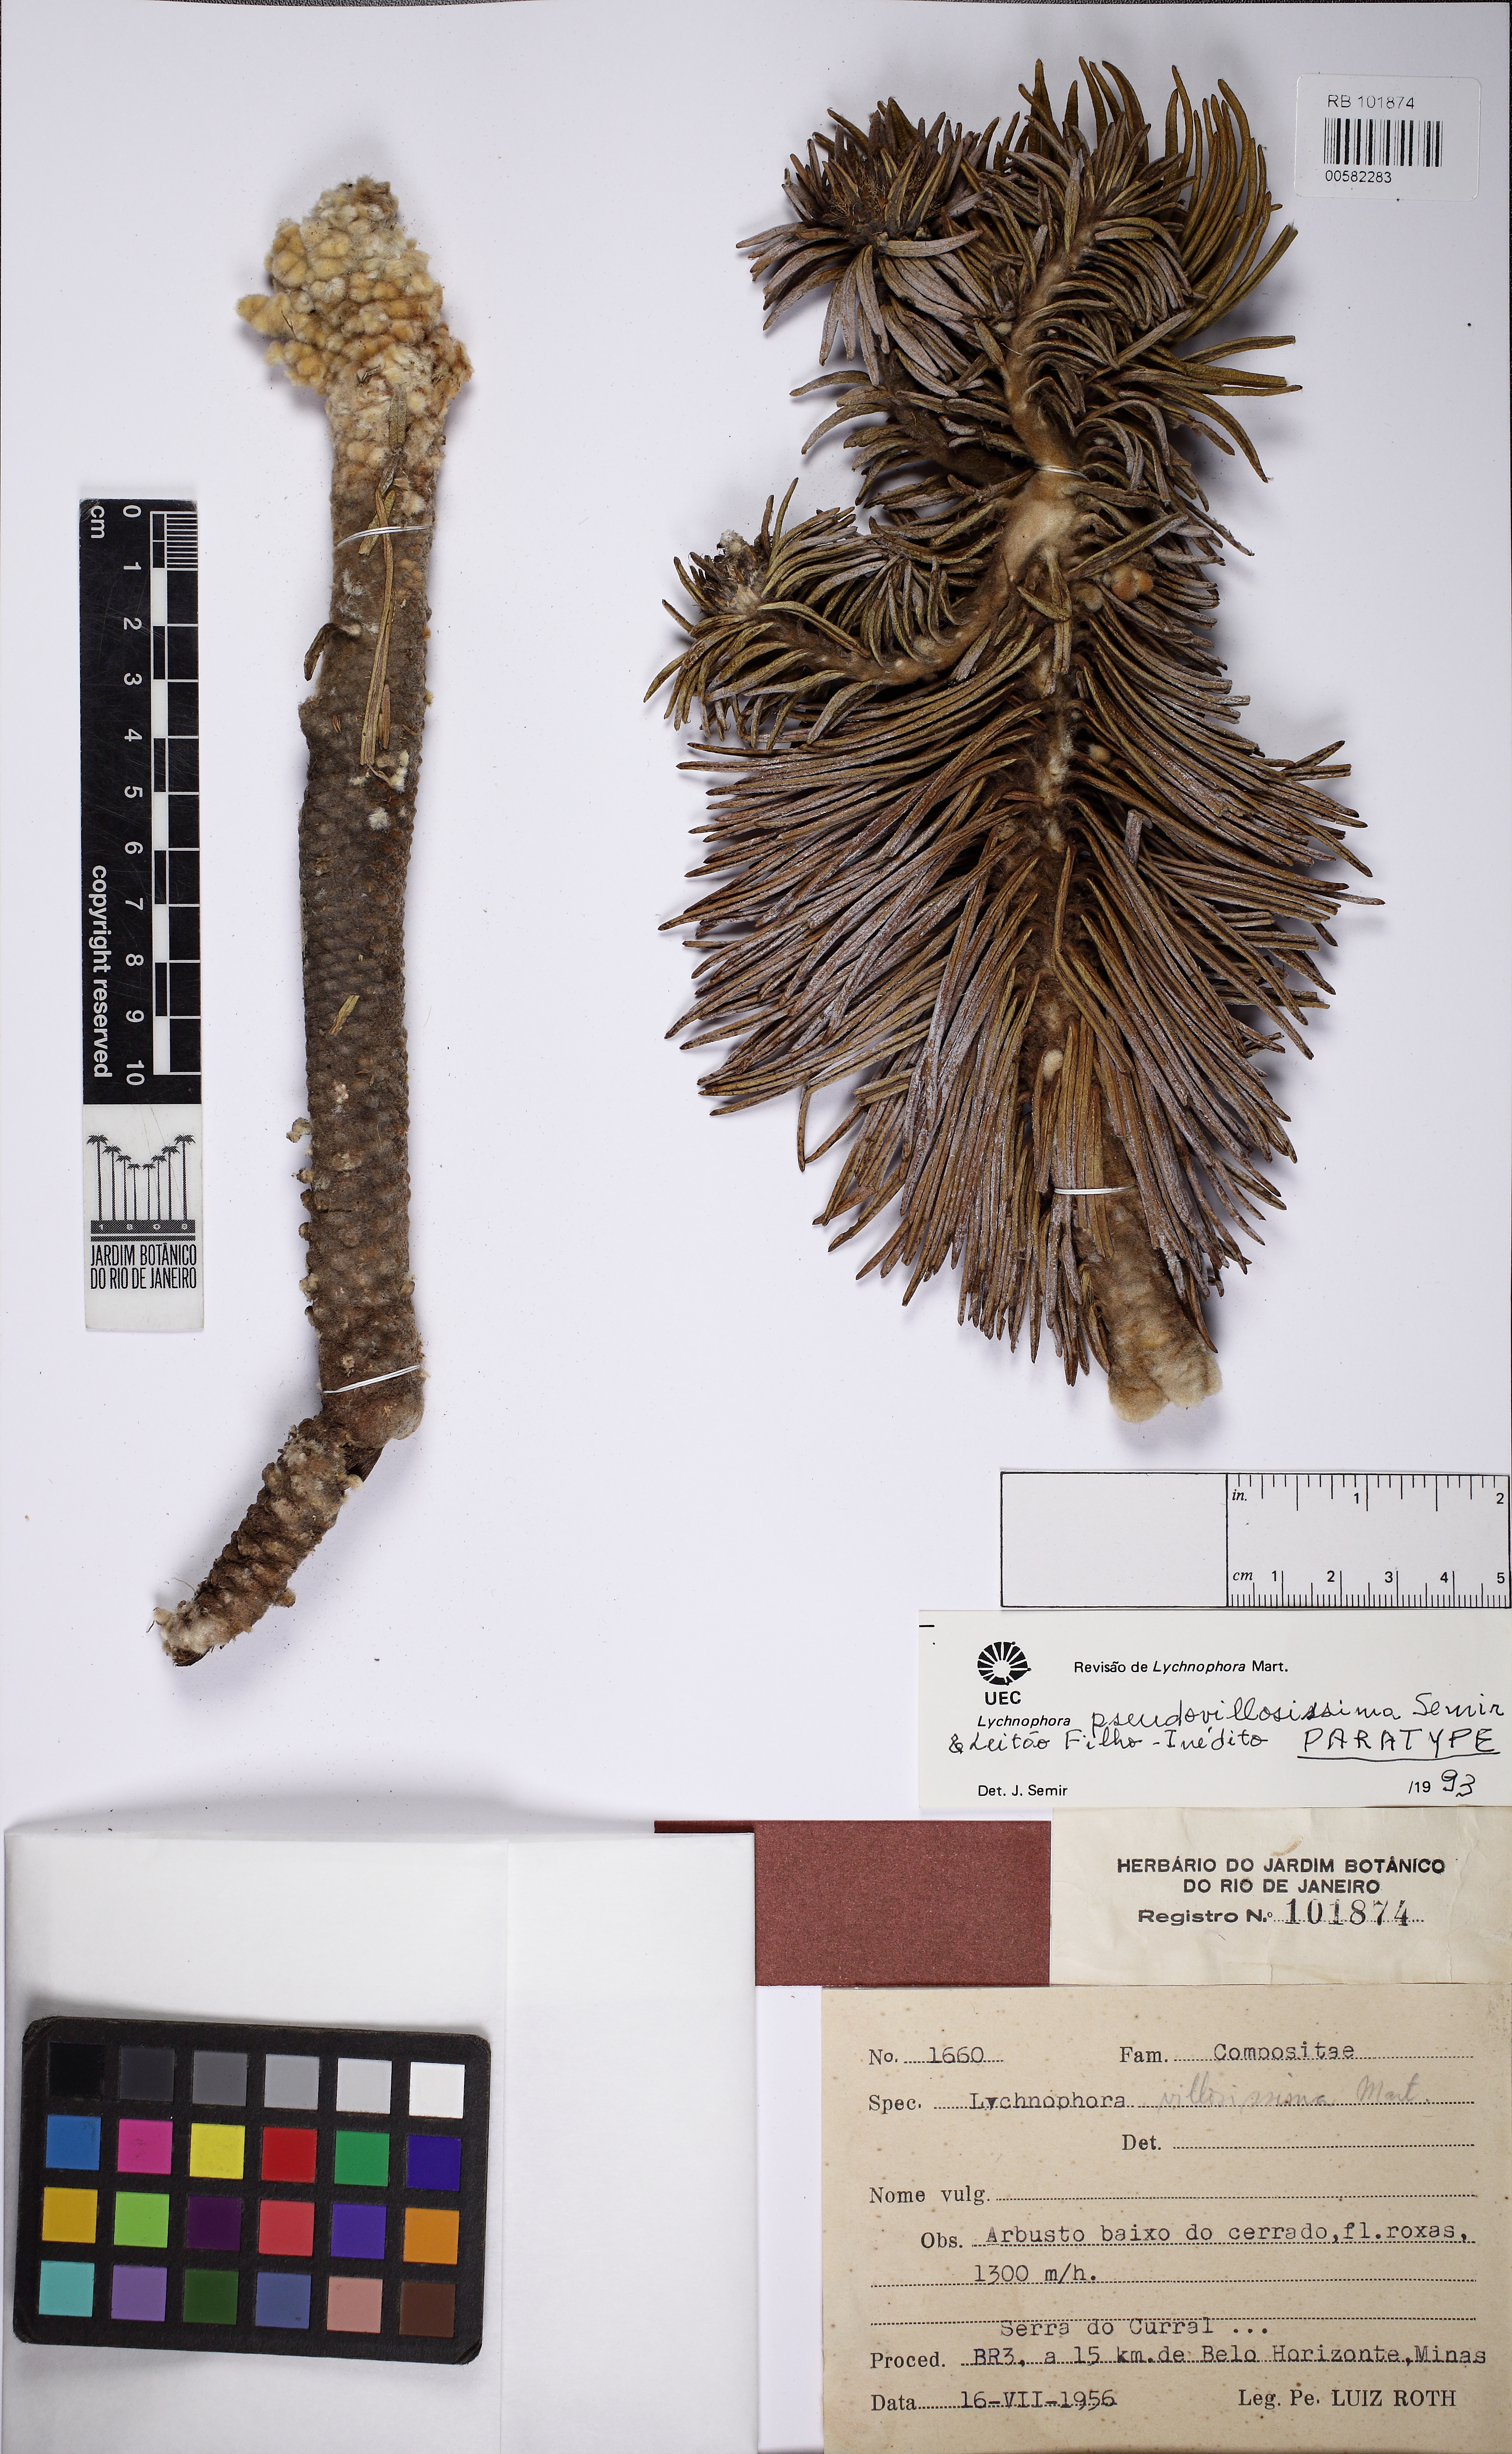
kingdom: Plantae
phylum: Tracheophyta
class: Magnoliopsida
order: Asterales
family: Asteraceae
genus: Lychnophora
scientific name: Lychnophora pseudovillosissima
